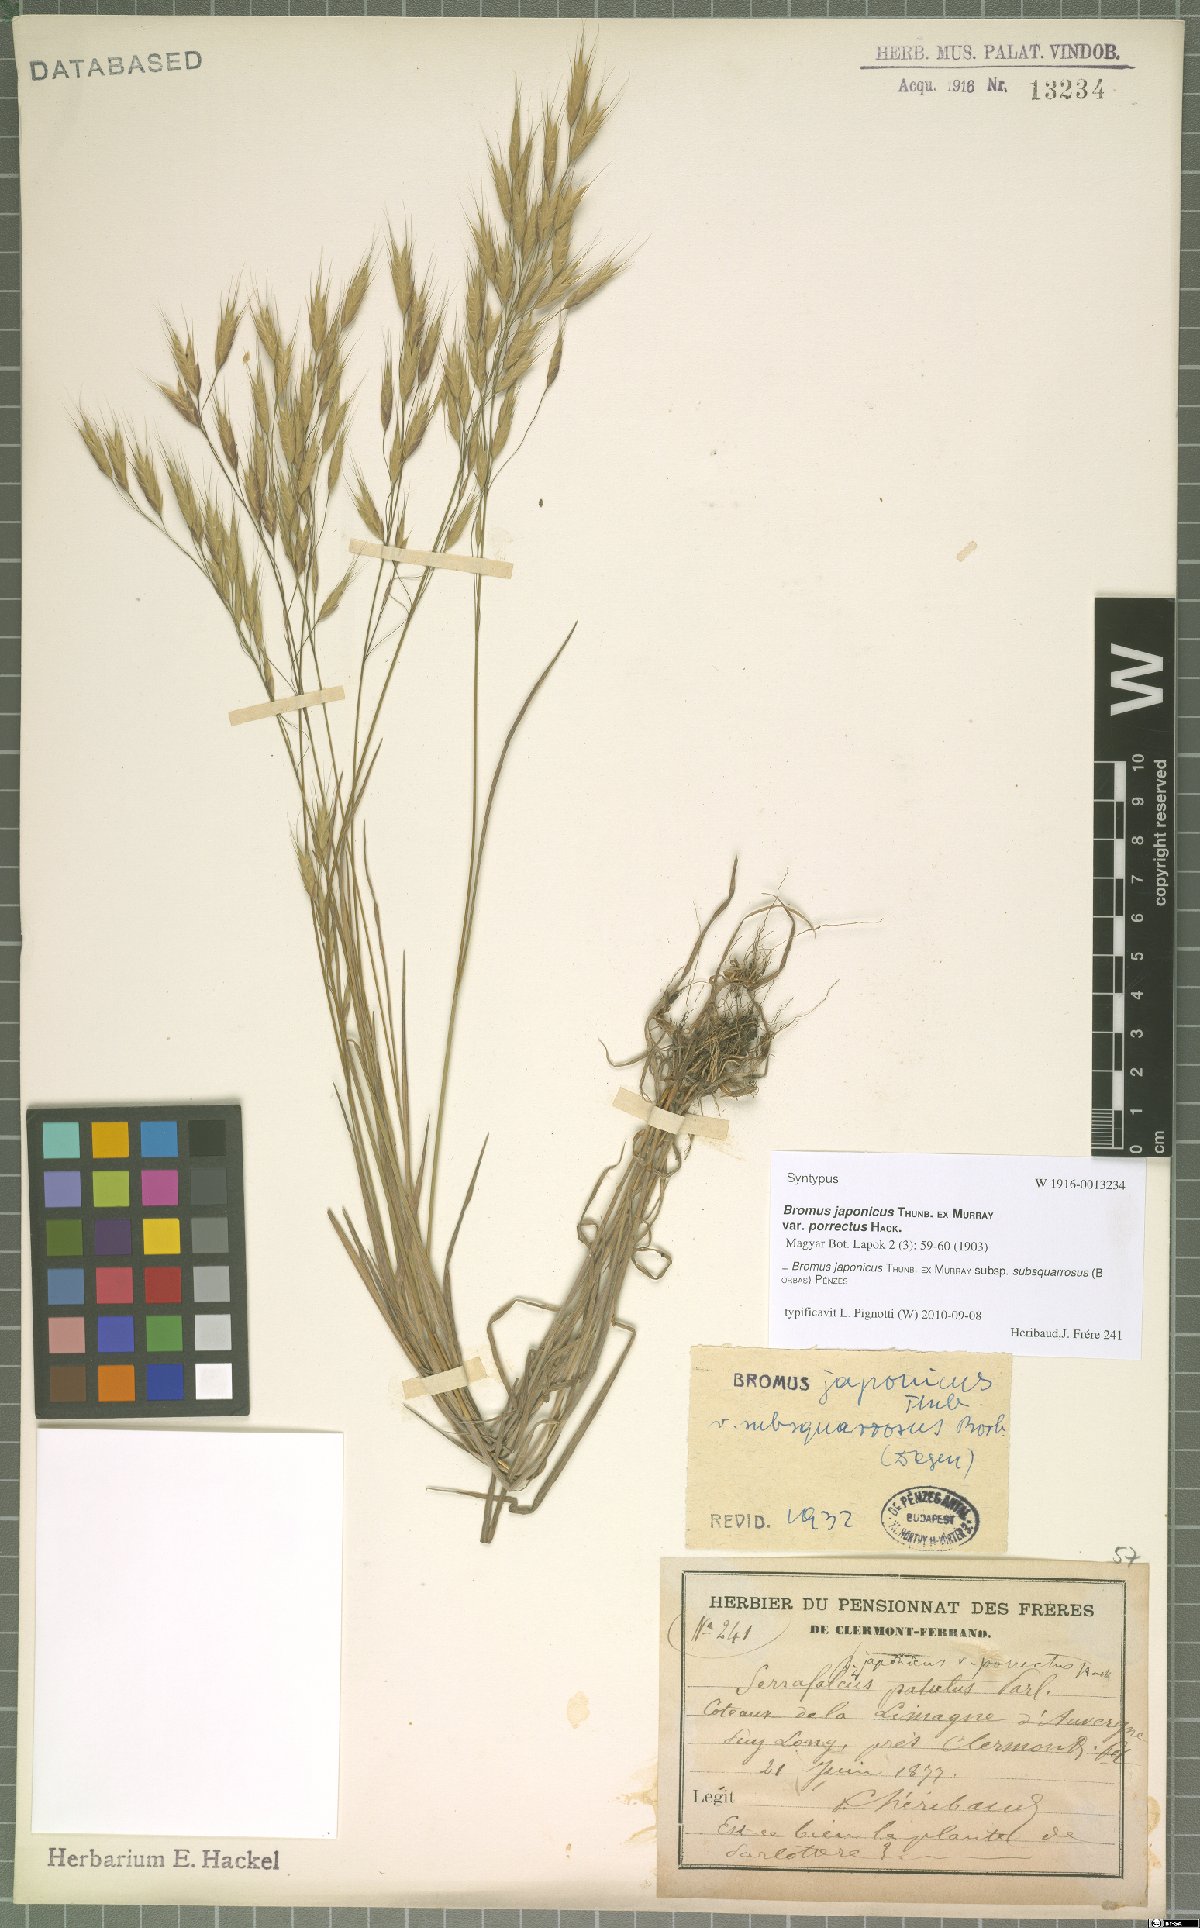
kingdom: Plantae
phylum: Tracheophyta
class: Liliopsida
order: Poales
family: Poaceae
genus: Bromus
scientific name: Bromus japonicus
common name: Japanese brome
